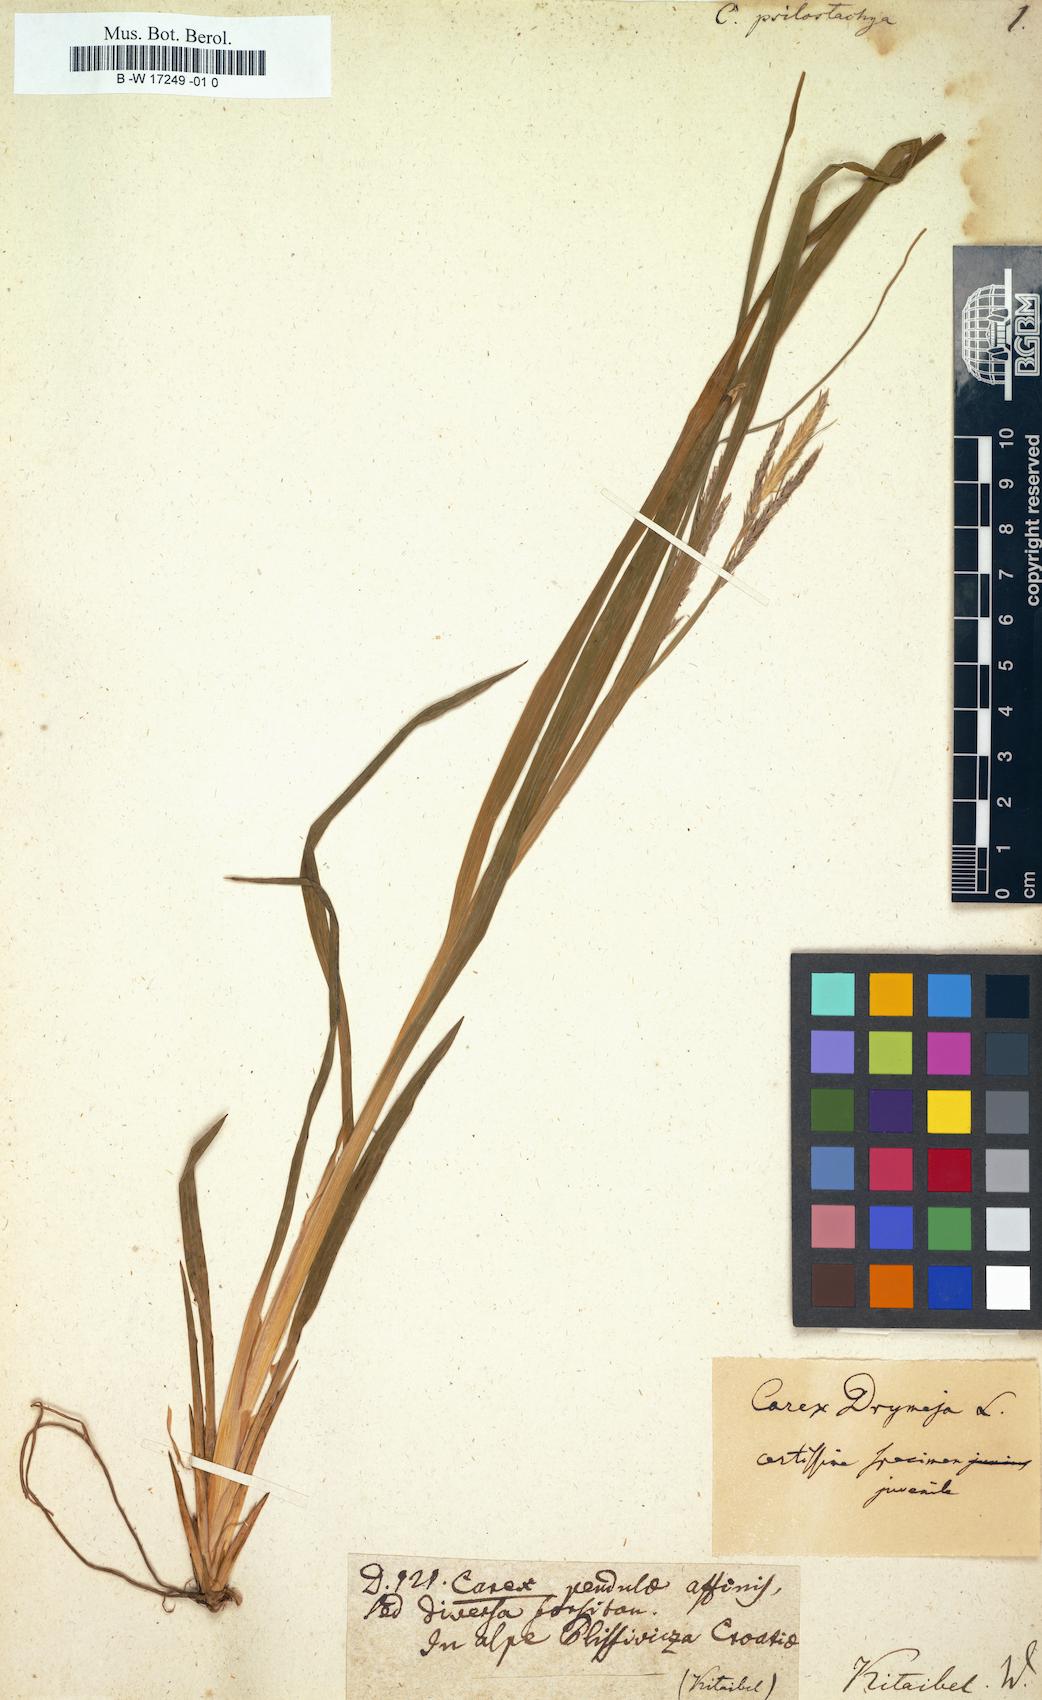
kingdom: Plantae
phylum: Tracheophyta
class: Liliopsida
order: Poales
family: Cyperaceae
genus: Carex
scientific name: Carex sylvatica
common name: Wood-sedge
